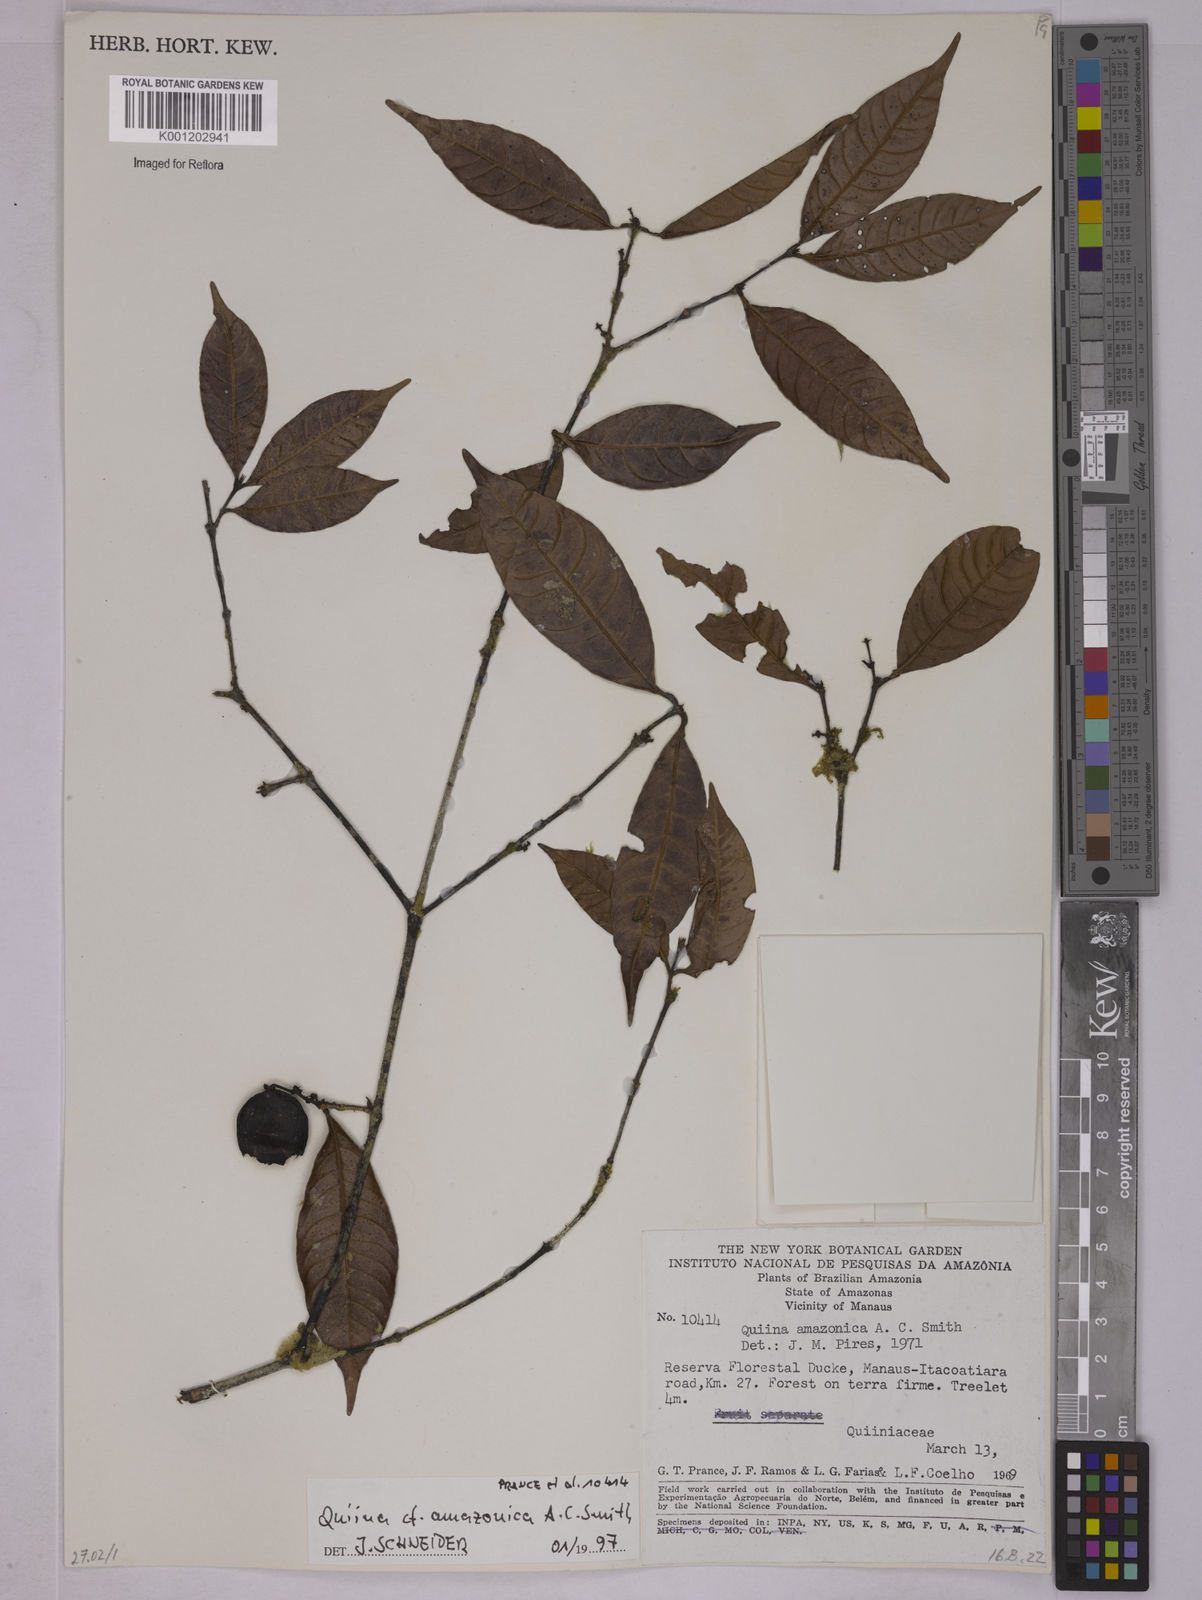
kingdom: Plantae
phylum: Tracheophyta
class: Magnoliopsida
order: Malpighiales
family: Quiinaceae
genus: Quiina
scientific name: Quiina amazonica
